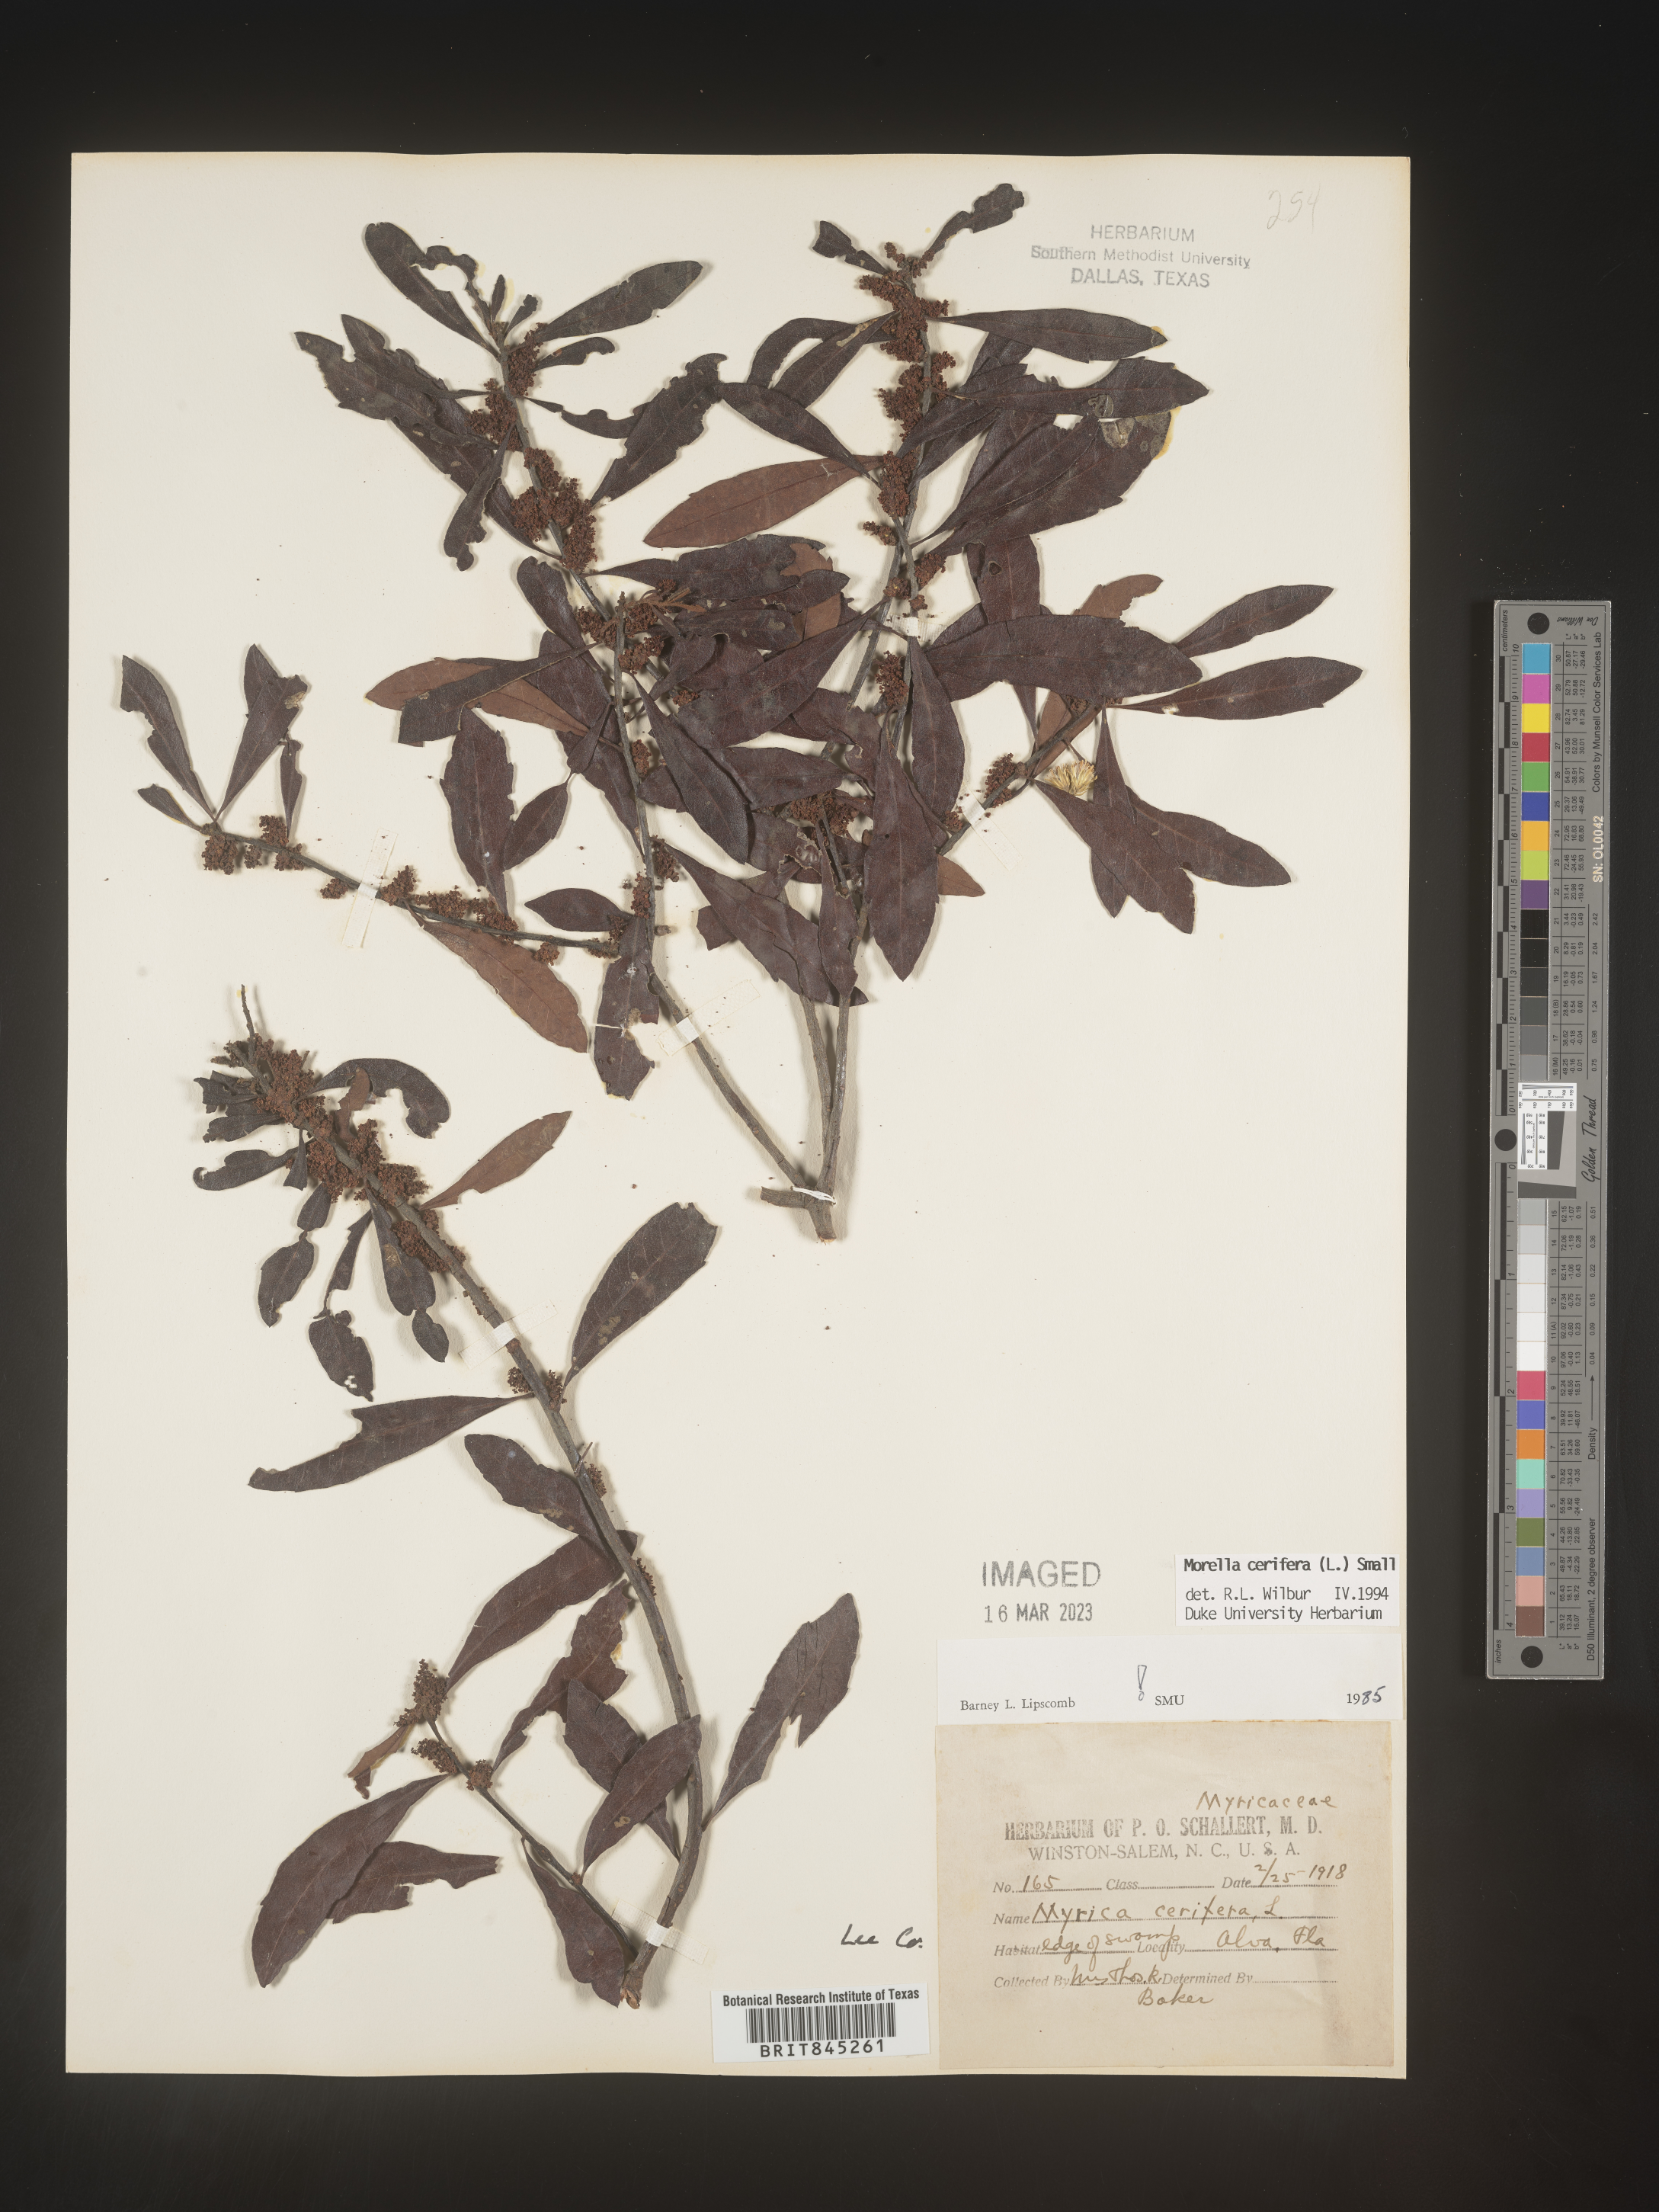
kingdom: Plantae
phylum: Tracheophyta
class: Magnoliopsida
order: Fagales
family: Myricaceae
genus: Morella
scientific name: Morella cerifera
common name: Wax myrtle
